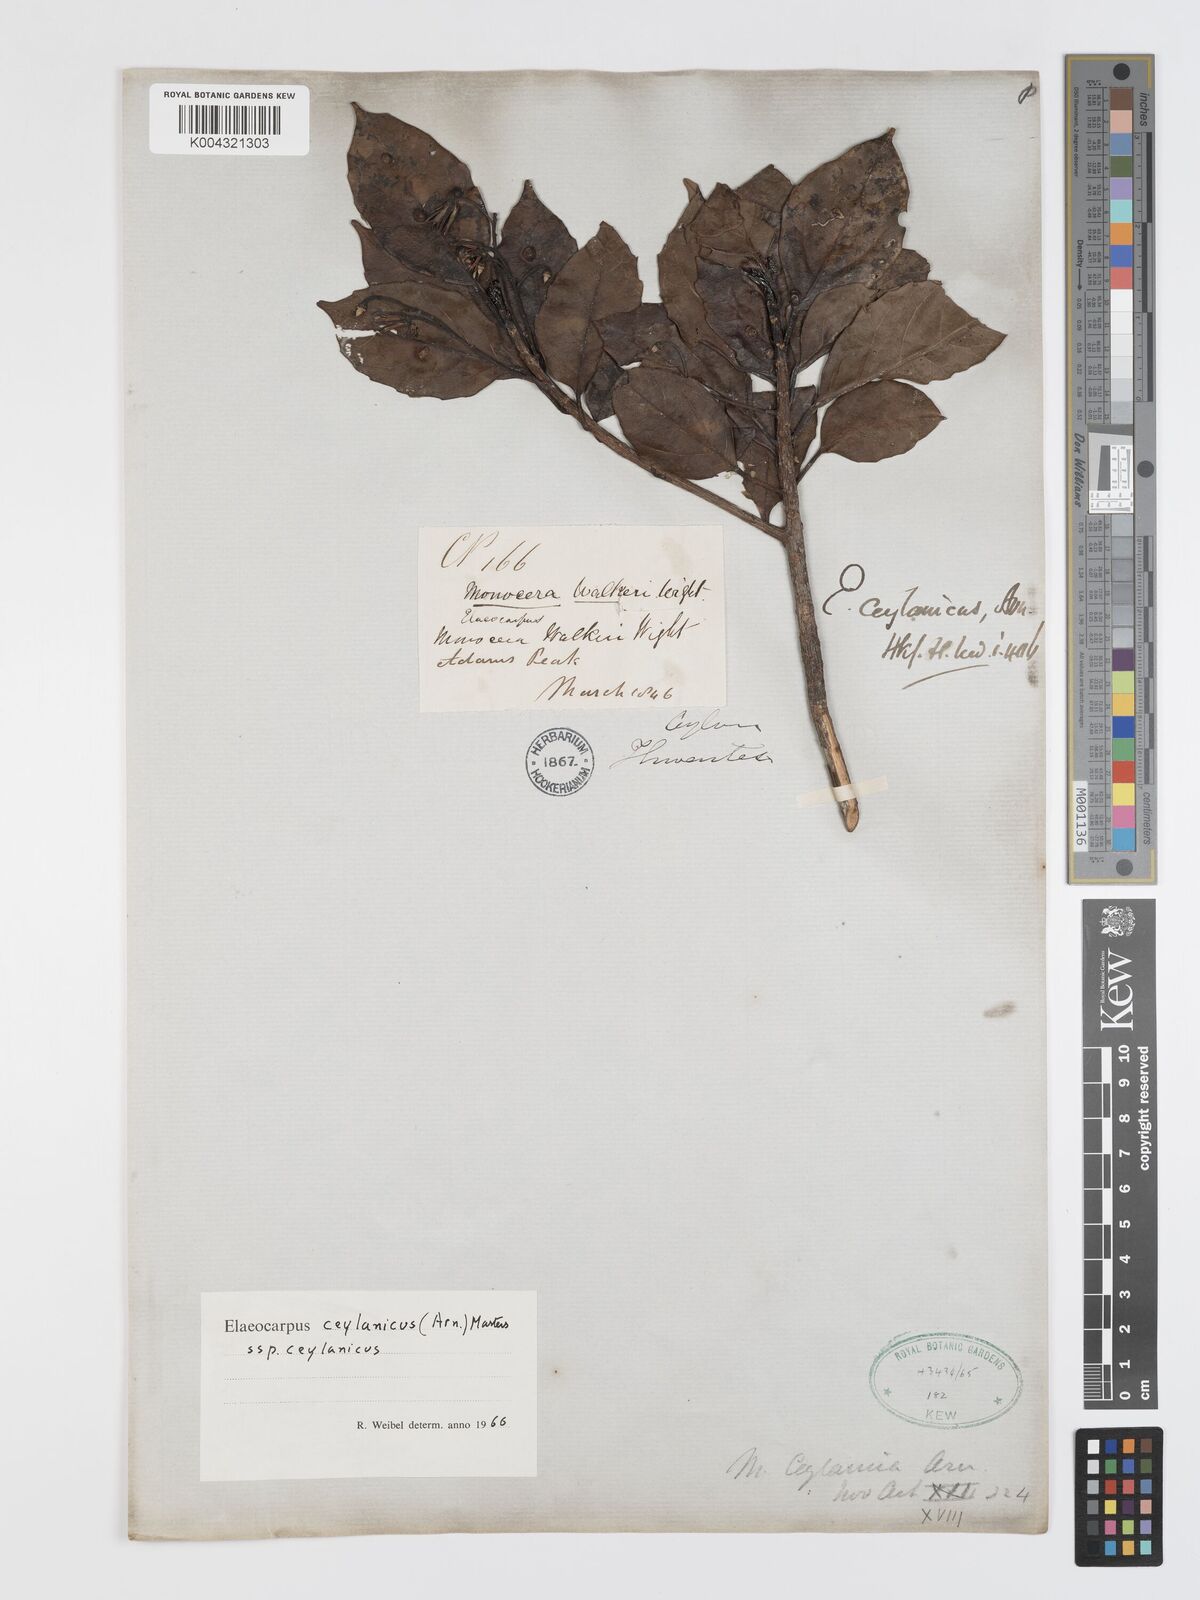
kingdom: Plantae
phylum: Tracheophyta
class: Magnoliopsida
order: Oxalidales
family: Elaeocarpaceae
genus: Elaeocarpus
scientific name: Elaeocarpus ceylanicus
